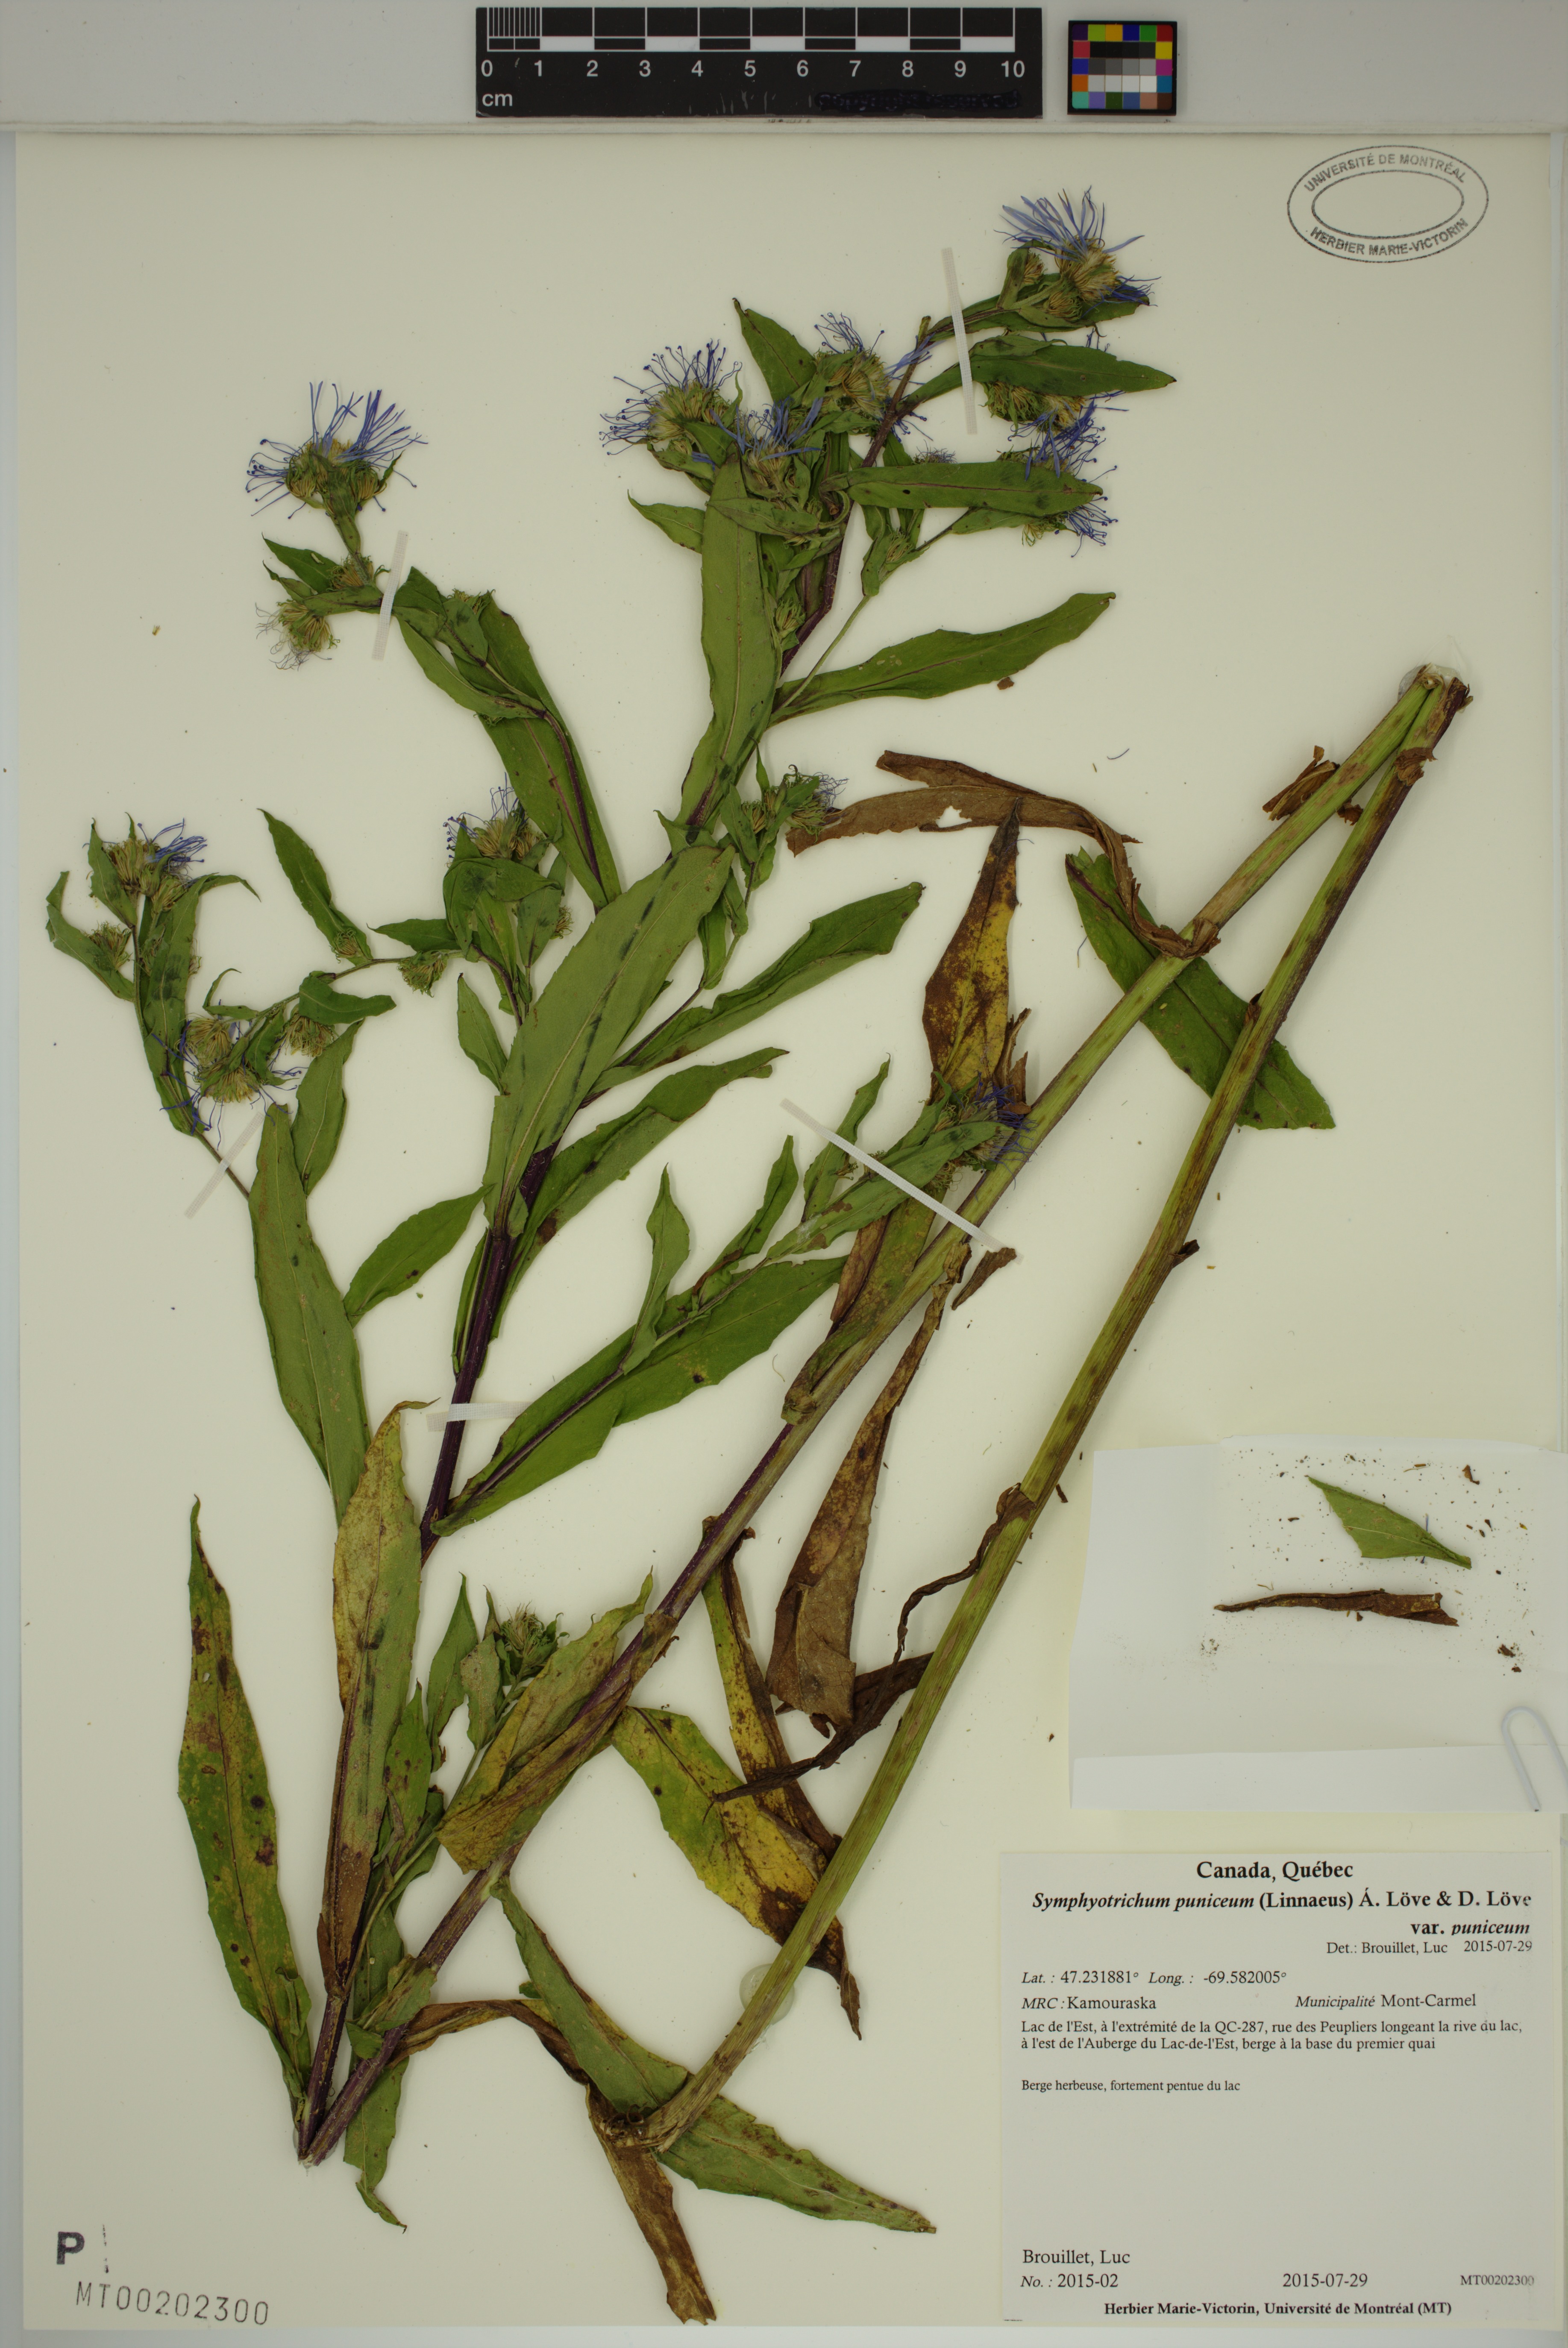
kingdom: Plantae
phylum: Tracheophyta
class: Magnoliopsida
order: Asterales
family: Asteraceae
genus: Symphyotrichum
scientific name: Symphyotrichum puniceum
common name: Bog aster
